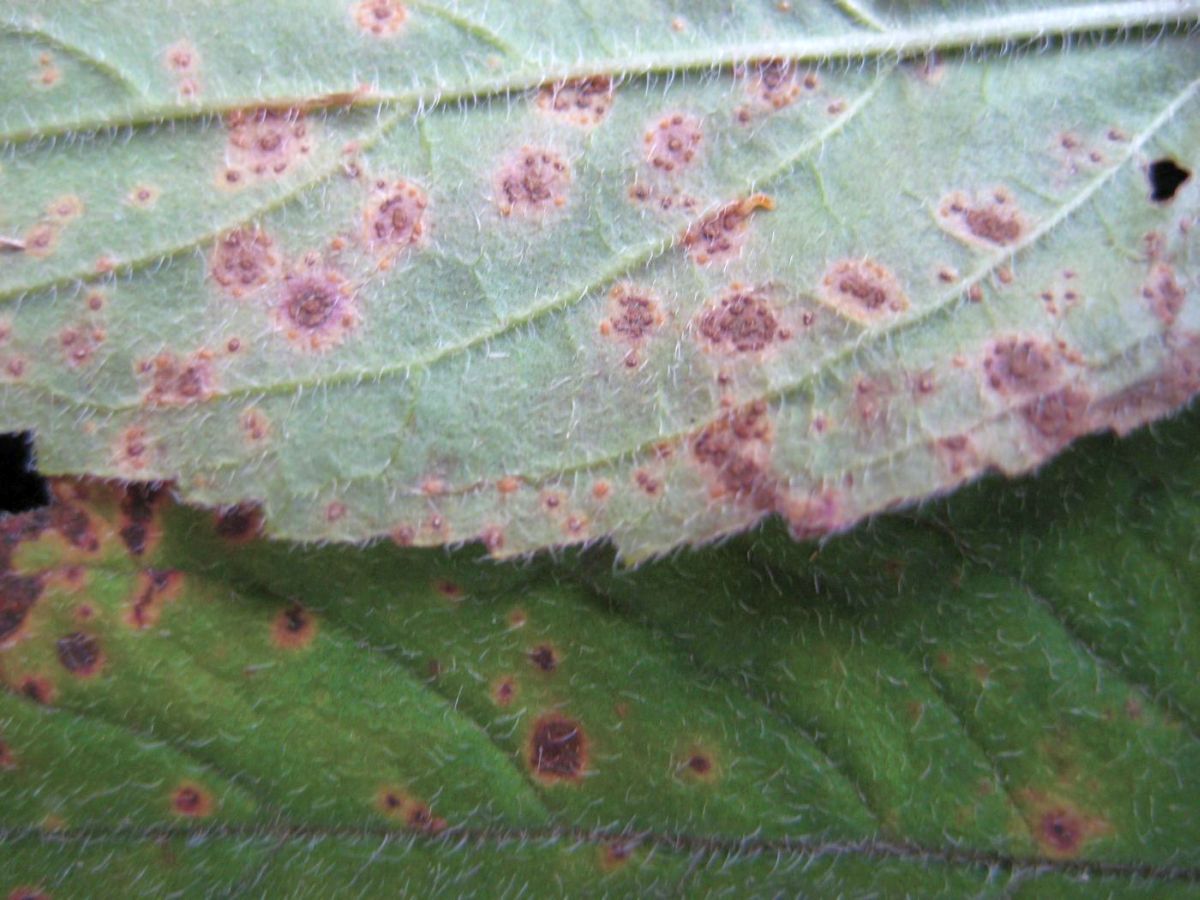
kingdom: Fungi
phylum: Basidiomycota
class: Pucciniomycetes
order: Pucciniales
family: Pucciniaceae
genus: Puccinia
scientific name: Puccinia menthae
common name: Mint rust
